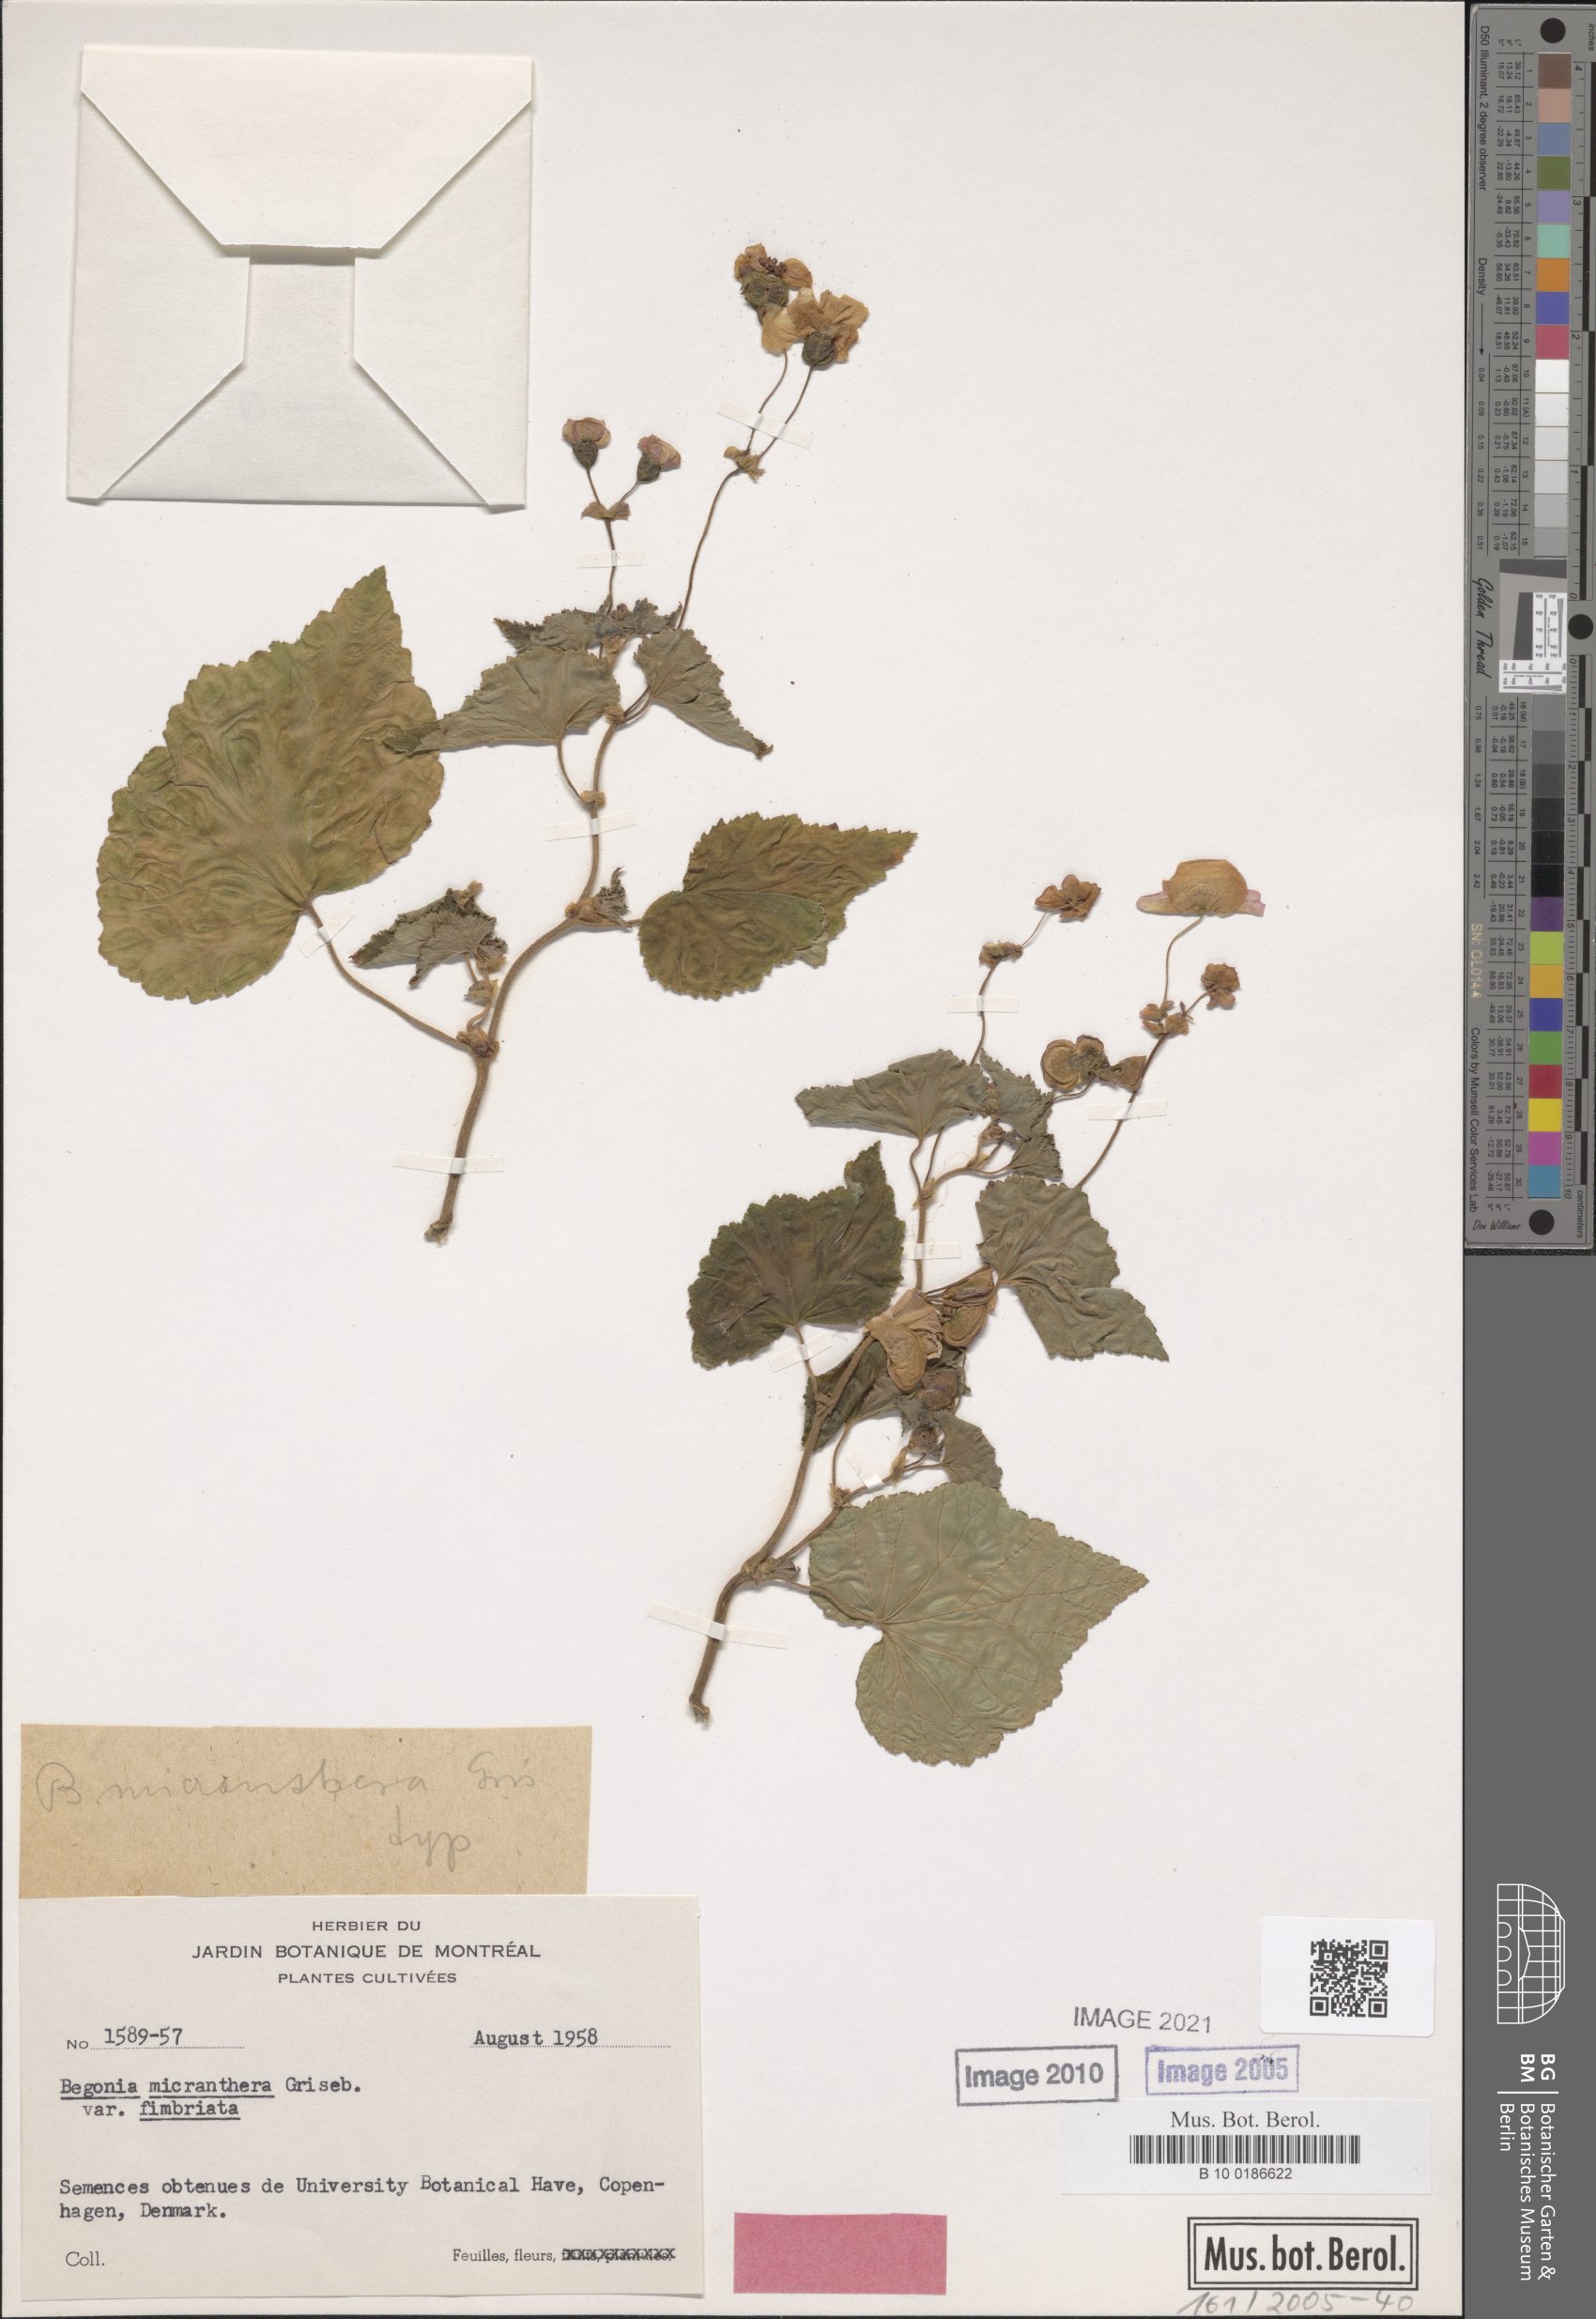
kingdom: Plantae
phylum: Tracheophyta
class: Magnoliopsida
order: Cucurbitales
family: Begoniaceae
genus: Begonia
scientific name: Begonia micranthera
